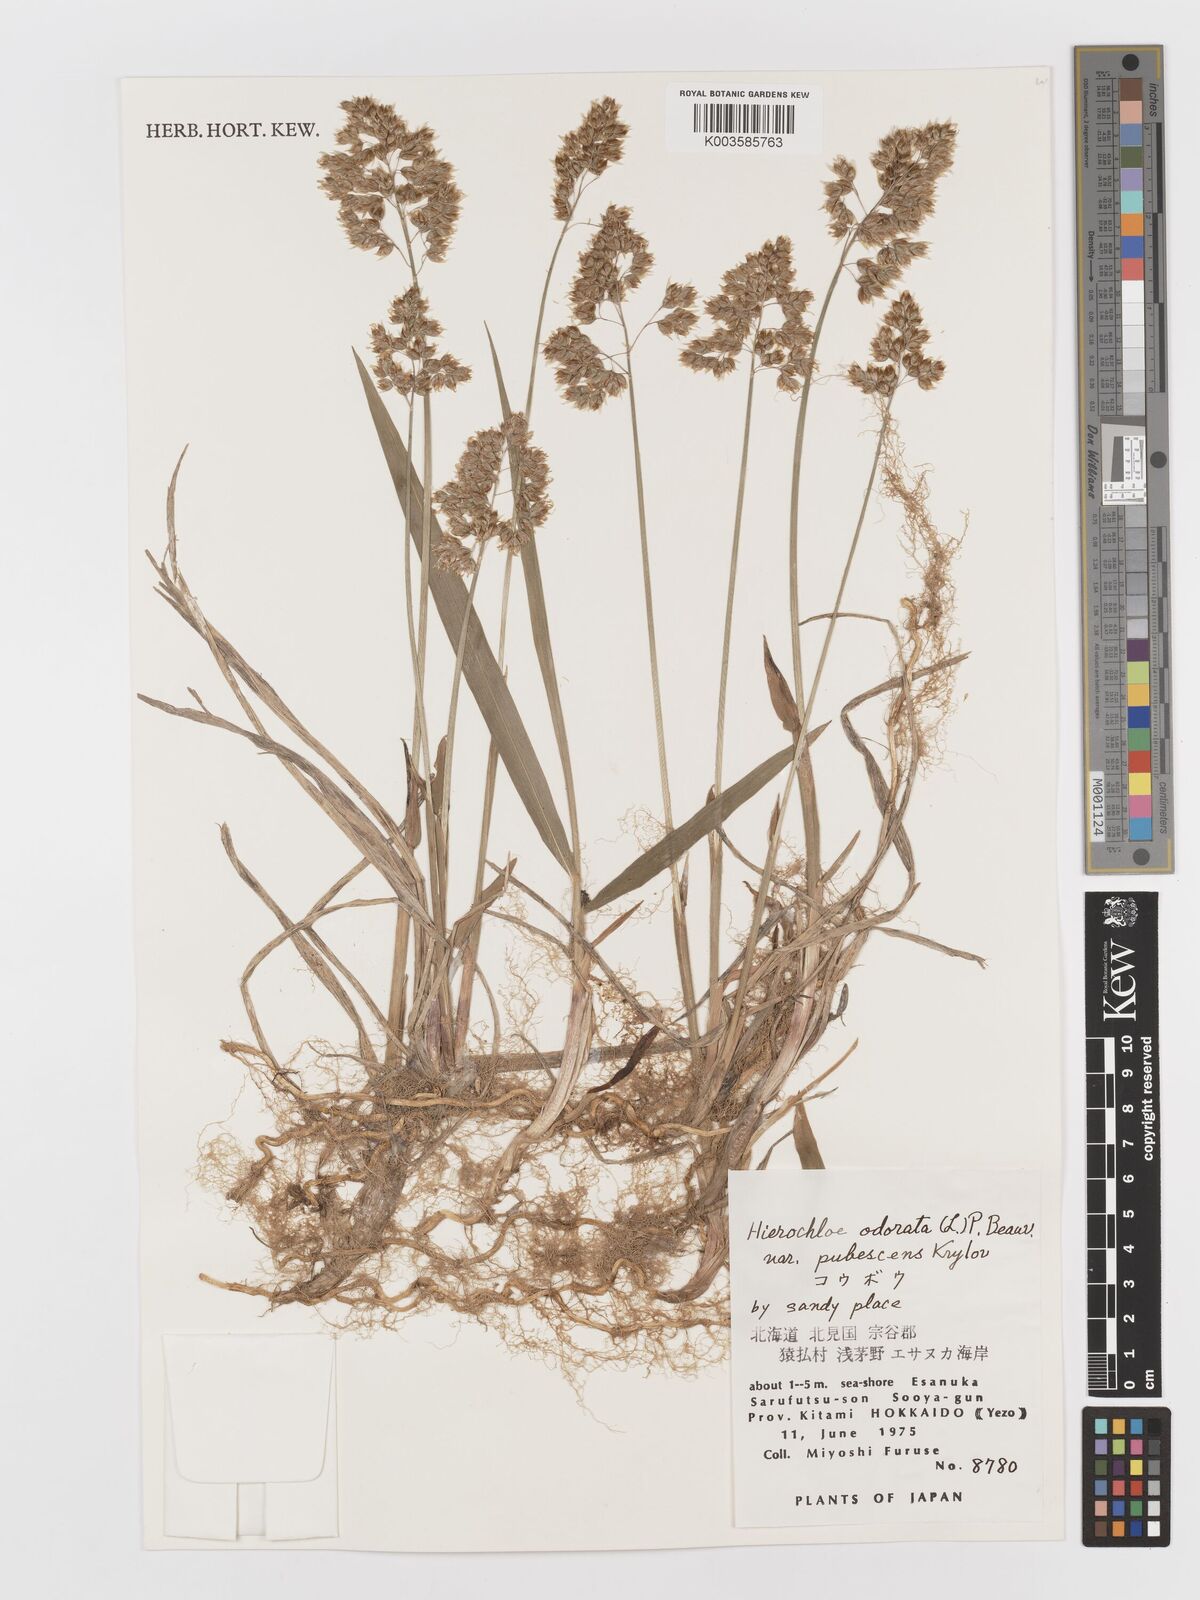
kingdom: Plantae
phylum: Tracheophyta
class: Liliopsida
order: Poales
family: Poaceae
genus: Anthoxanthum
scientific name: Anthoxanthum nitens
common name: Holy grass
